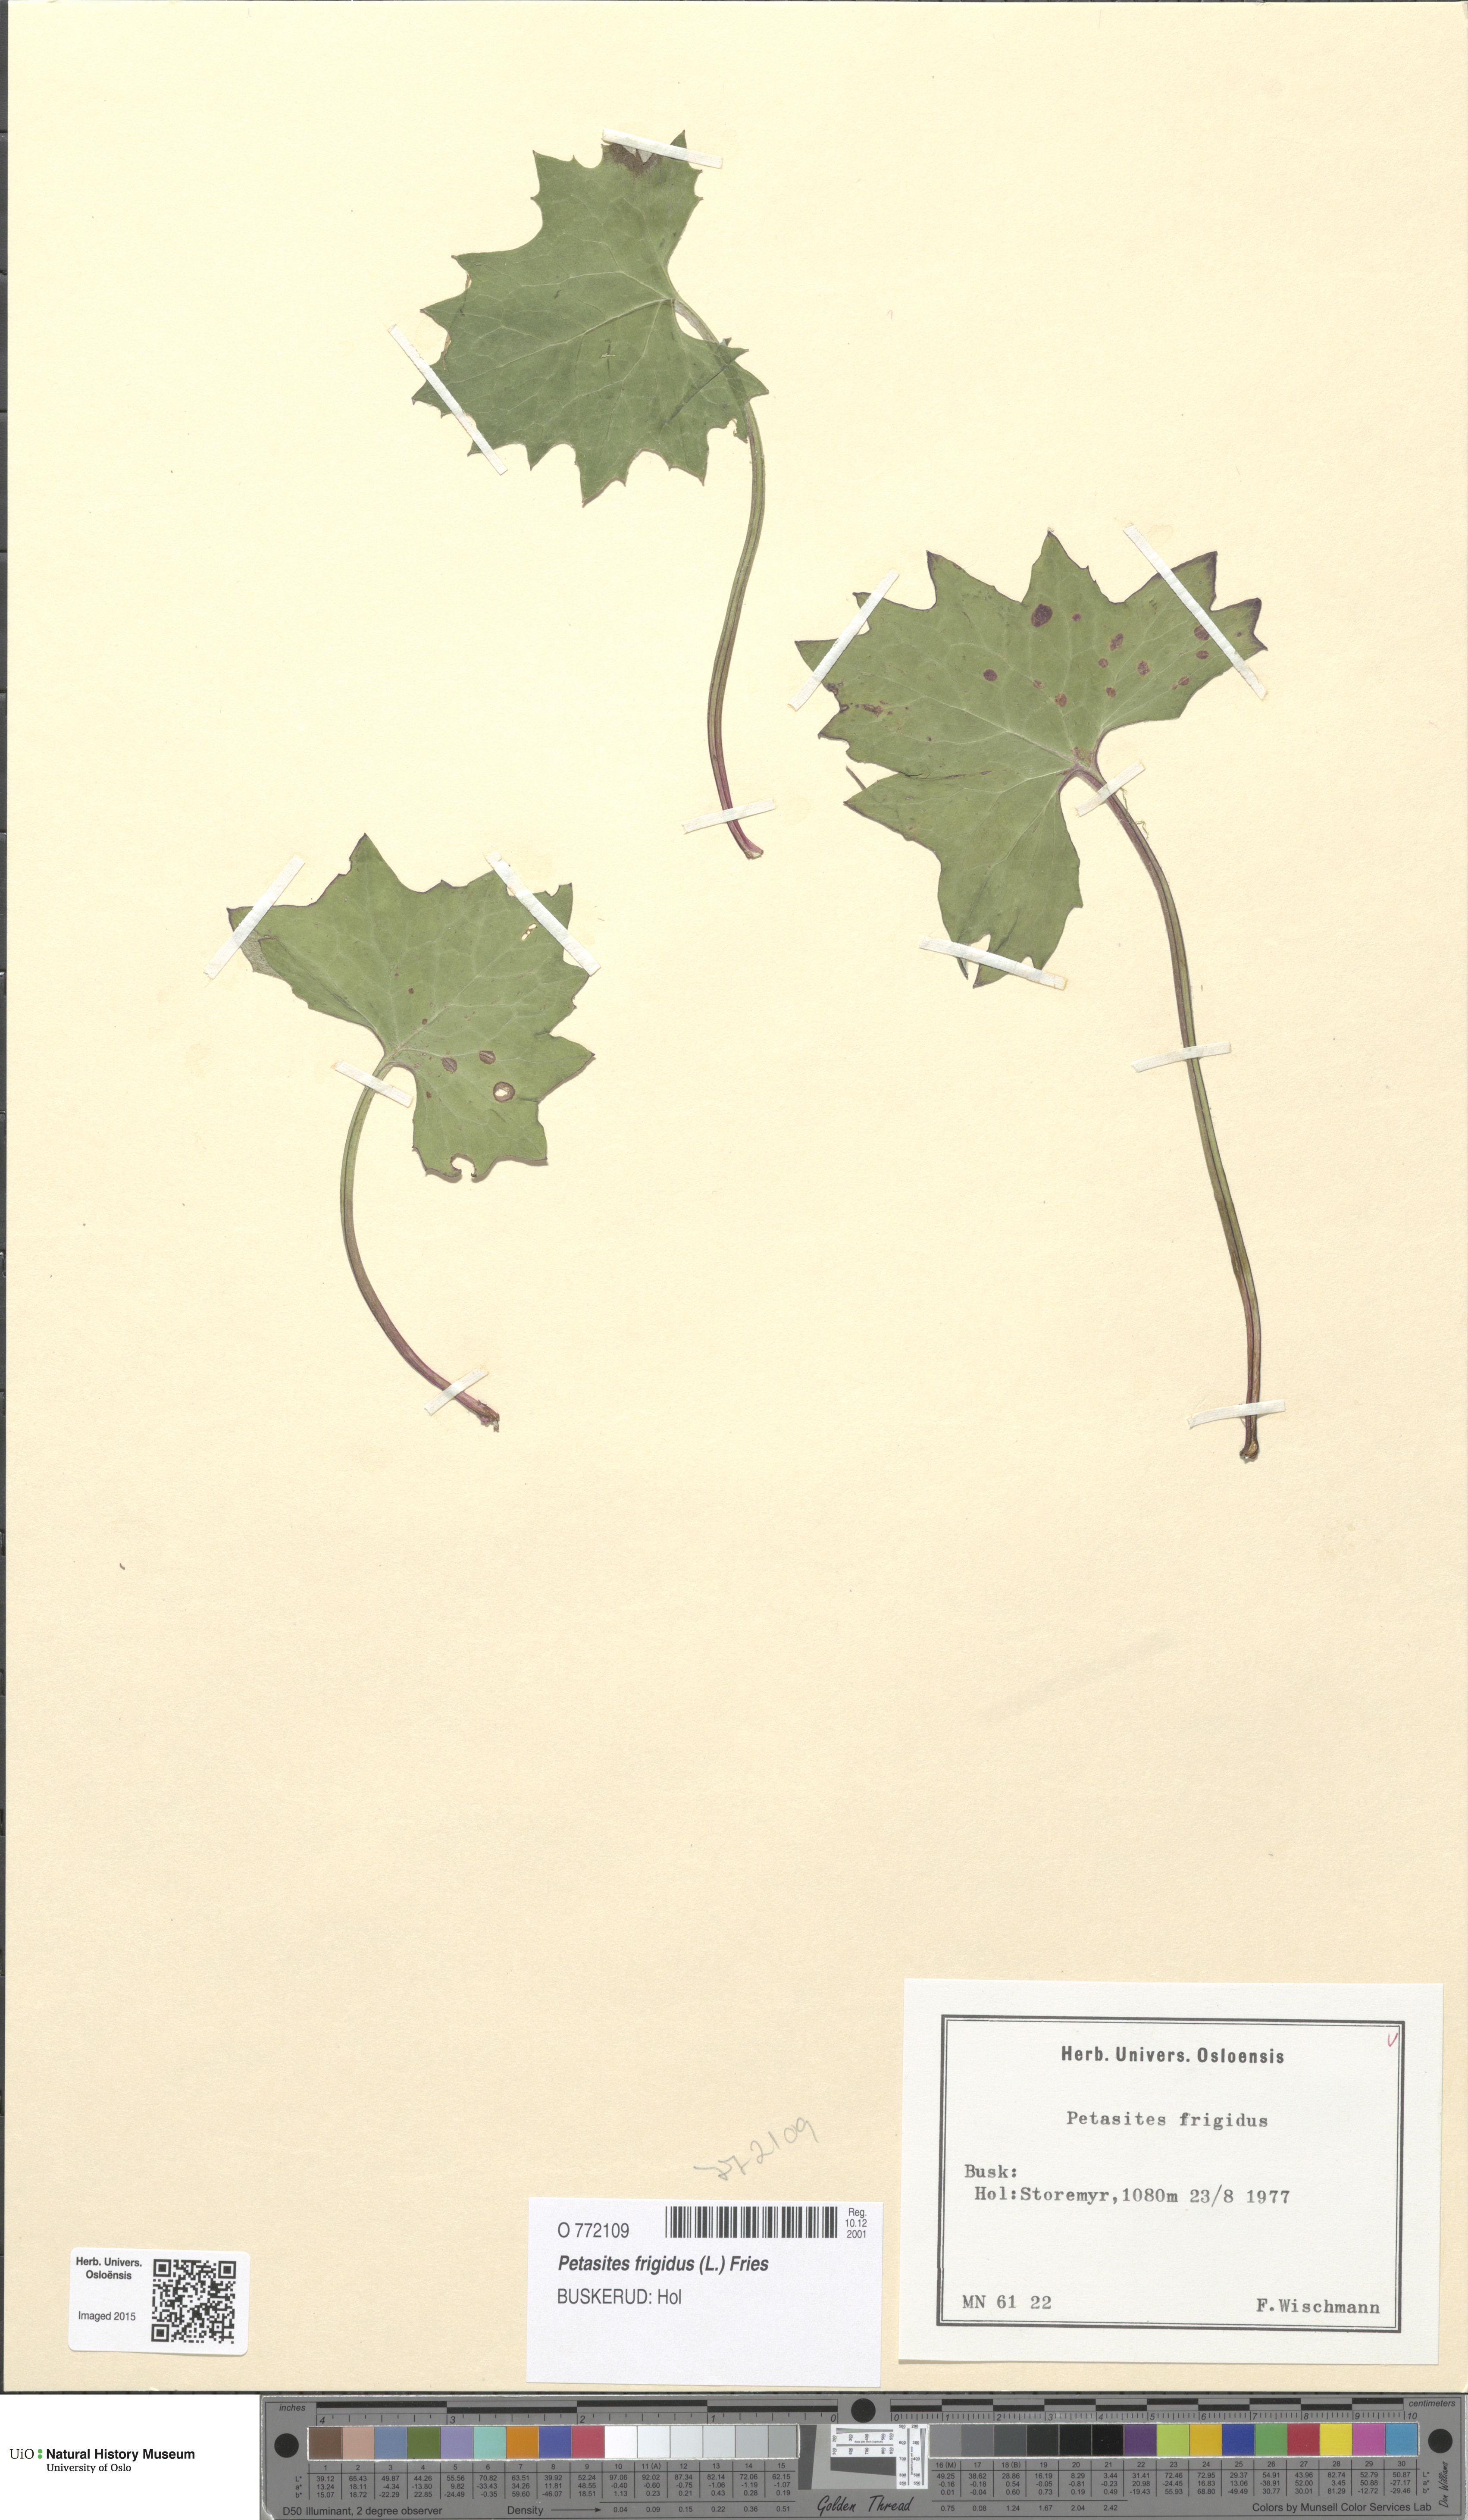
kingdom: Plantae
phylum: Tracheophyta
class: Magnoliopsida
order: Asterales
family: Asteraceae
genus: Petasites
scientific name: Petasites frigidus
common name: Arctic butterbur
